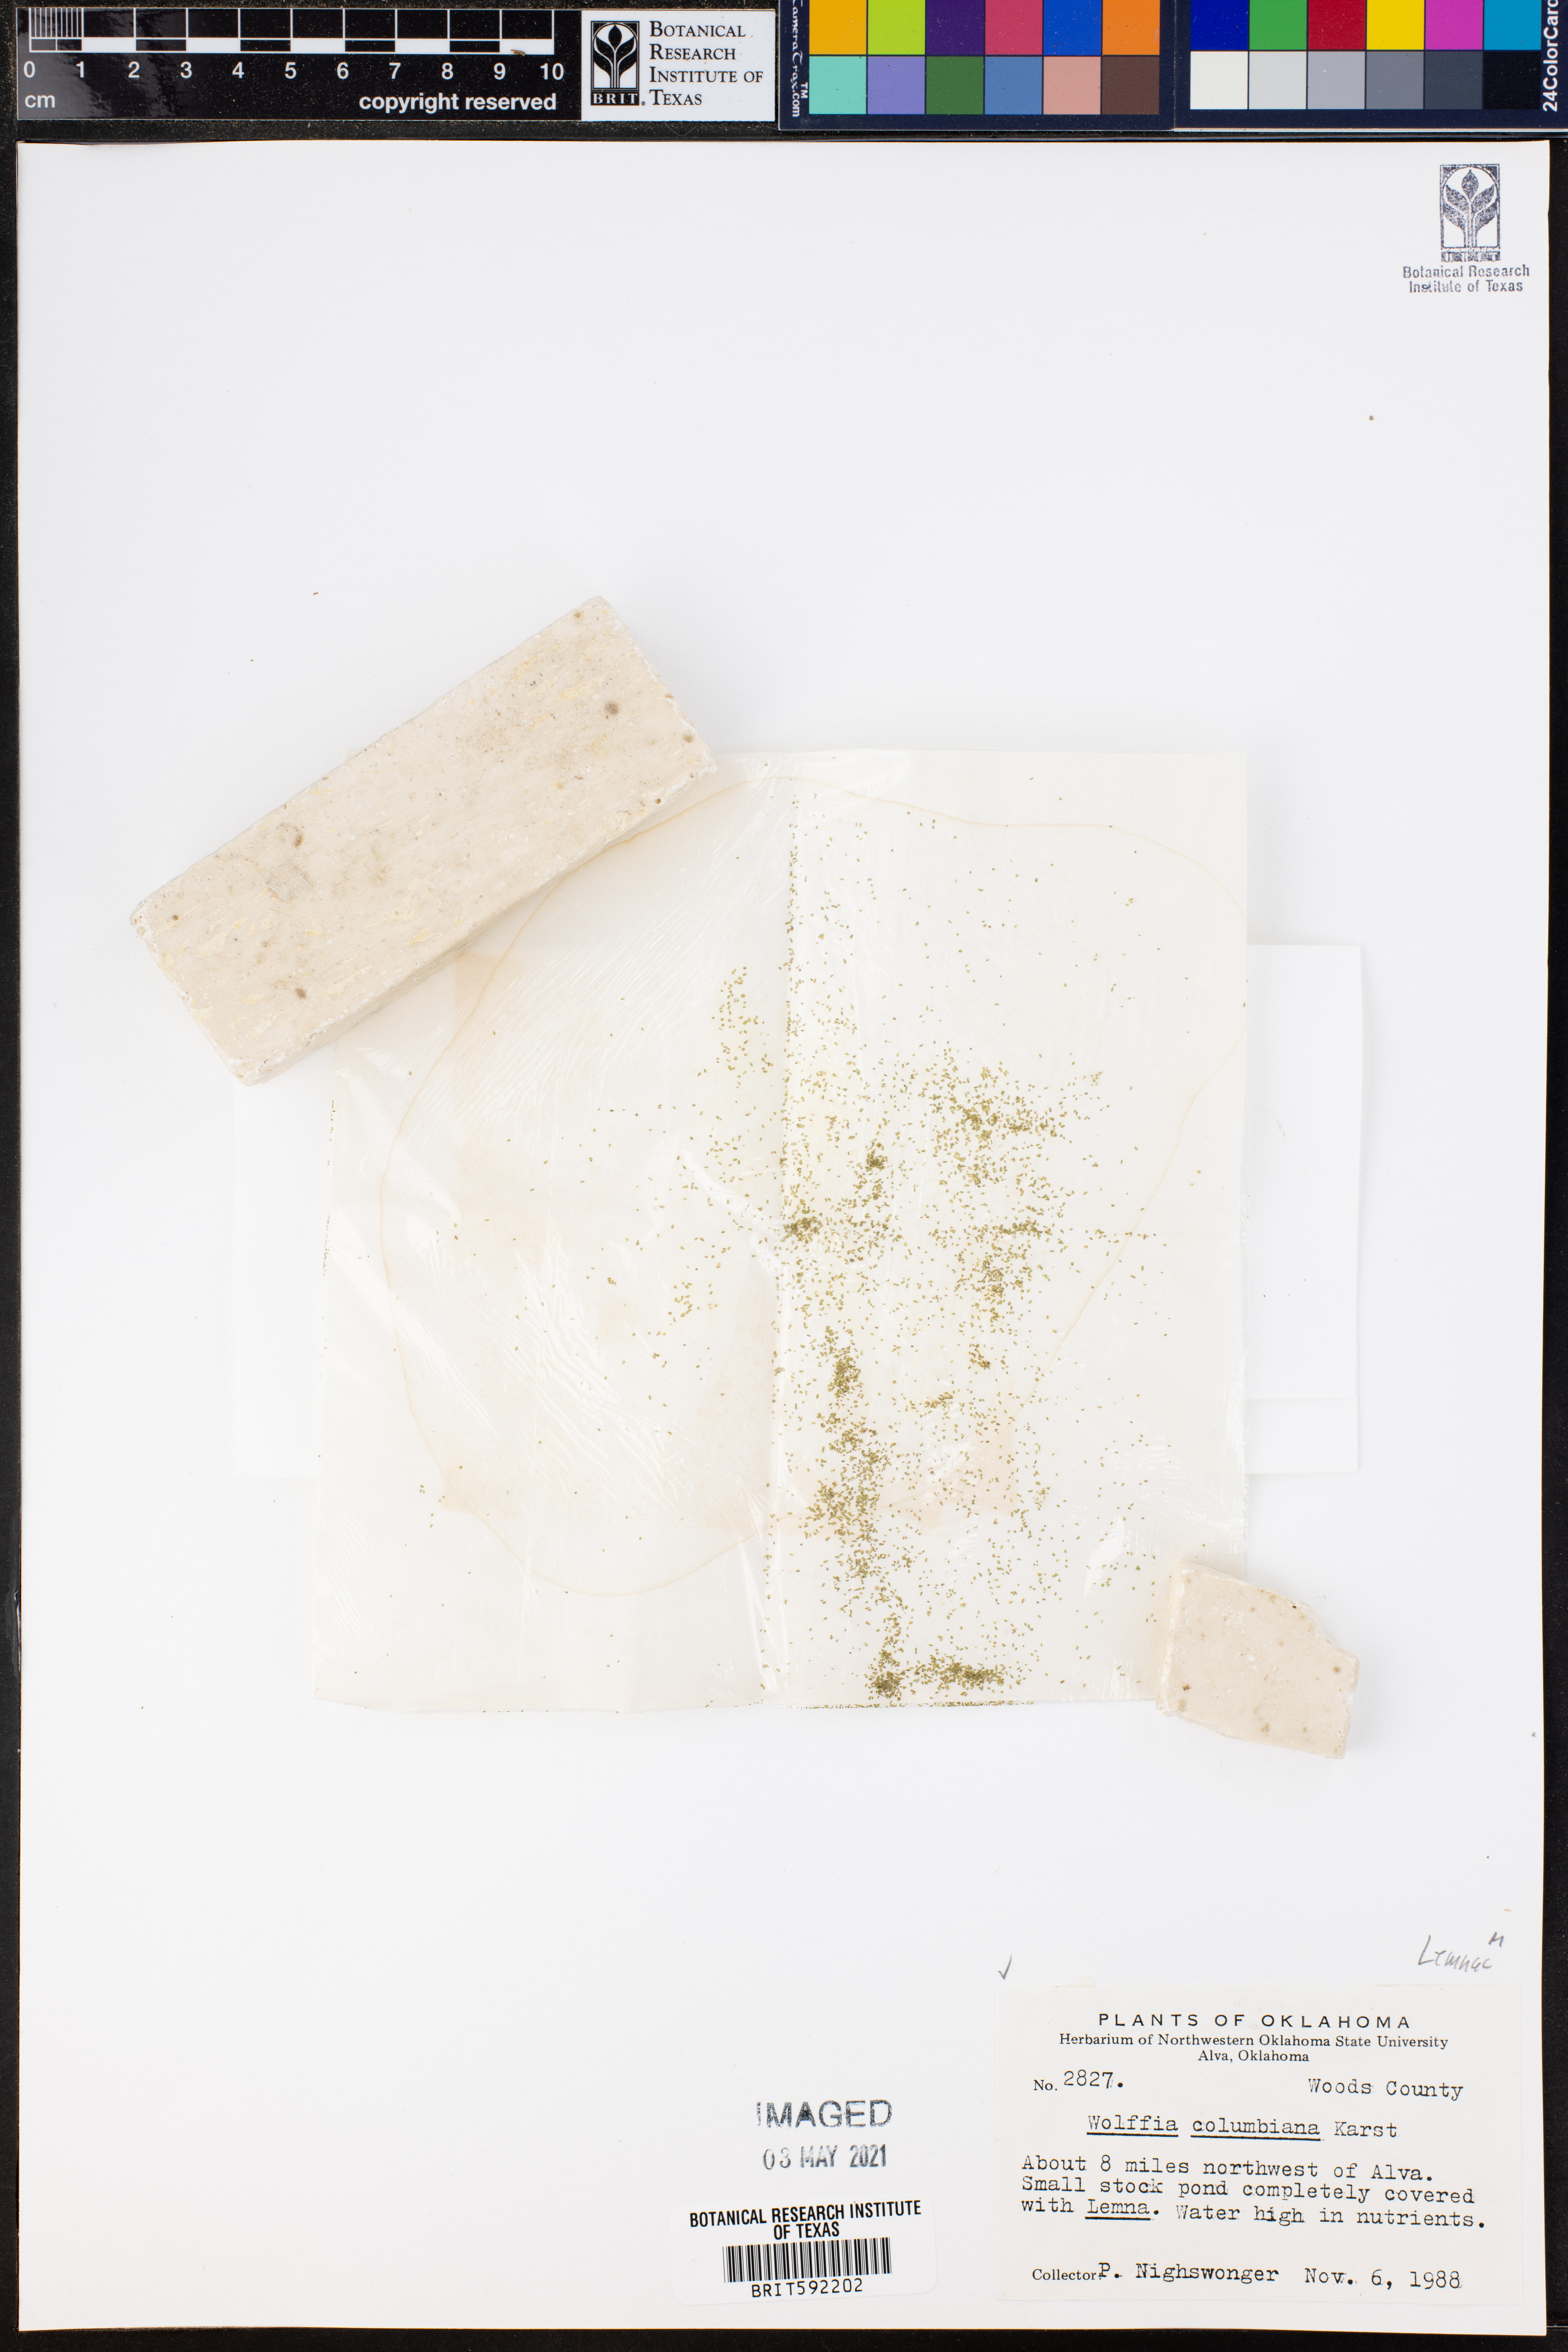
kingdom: Plantae
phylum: Tracheophyta
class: Liliopsida
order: Alismatales
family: Araceae
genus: Wolffia
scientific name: Wolffia columbiana
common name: Columbia watermeal
